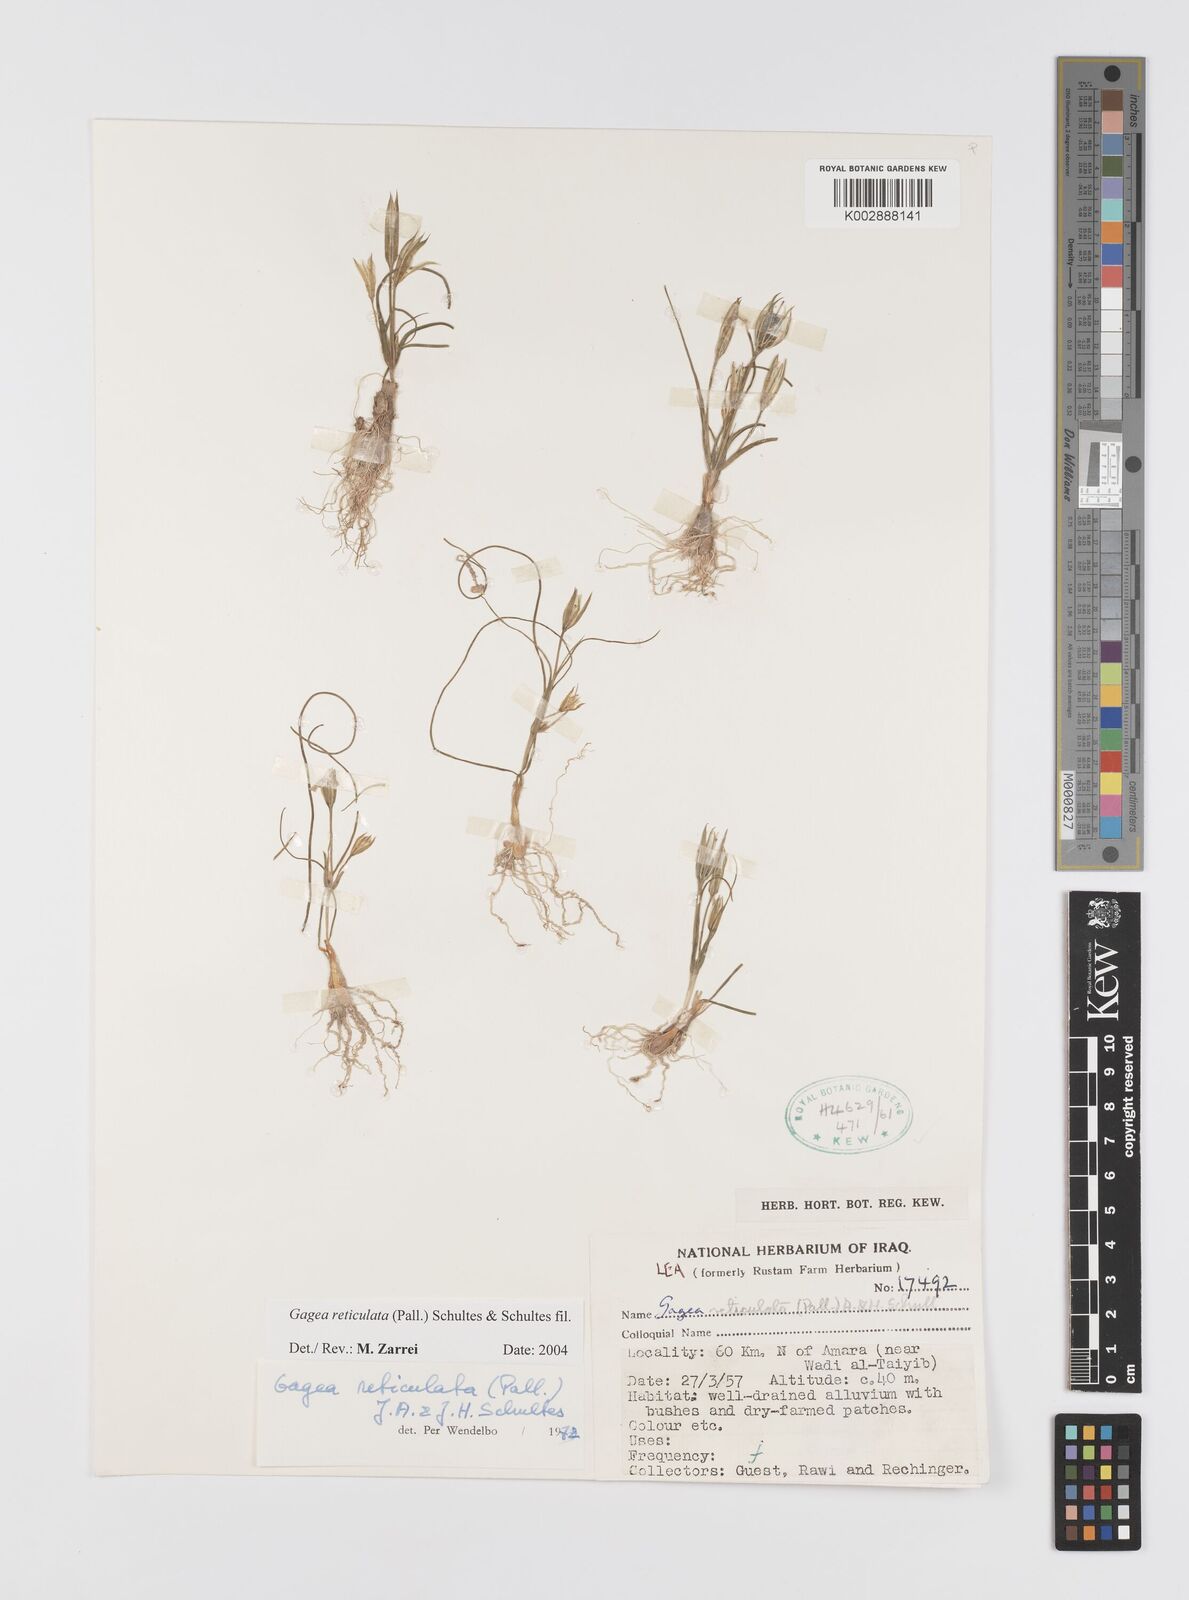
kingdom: Plantae
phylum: Tracheophyta
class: Liliopsida
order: Liliales
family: Liliaceae
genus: Gagea
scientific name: Gagea reticulata
